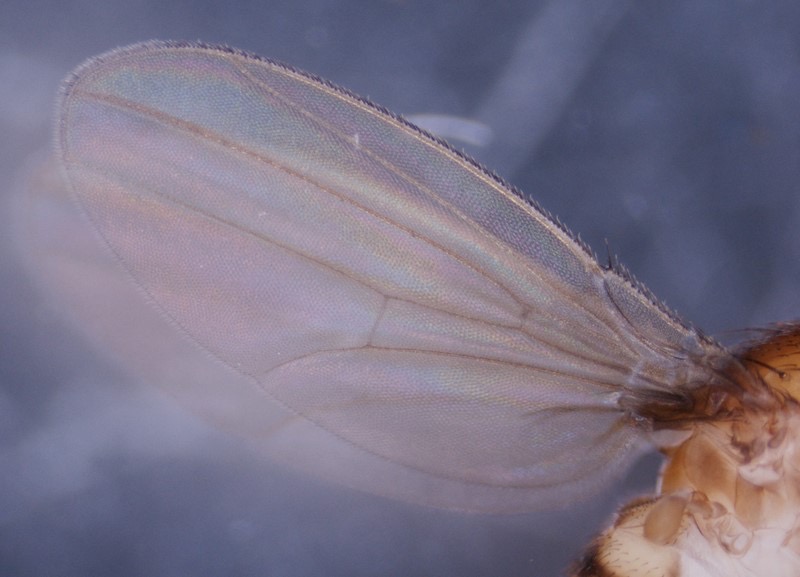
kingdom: Animalia
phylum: Arthropoda
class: Insecta
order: Diptera
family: Drosophilidae
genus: Drosophila
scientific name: Drosophila melanogaster
